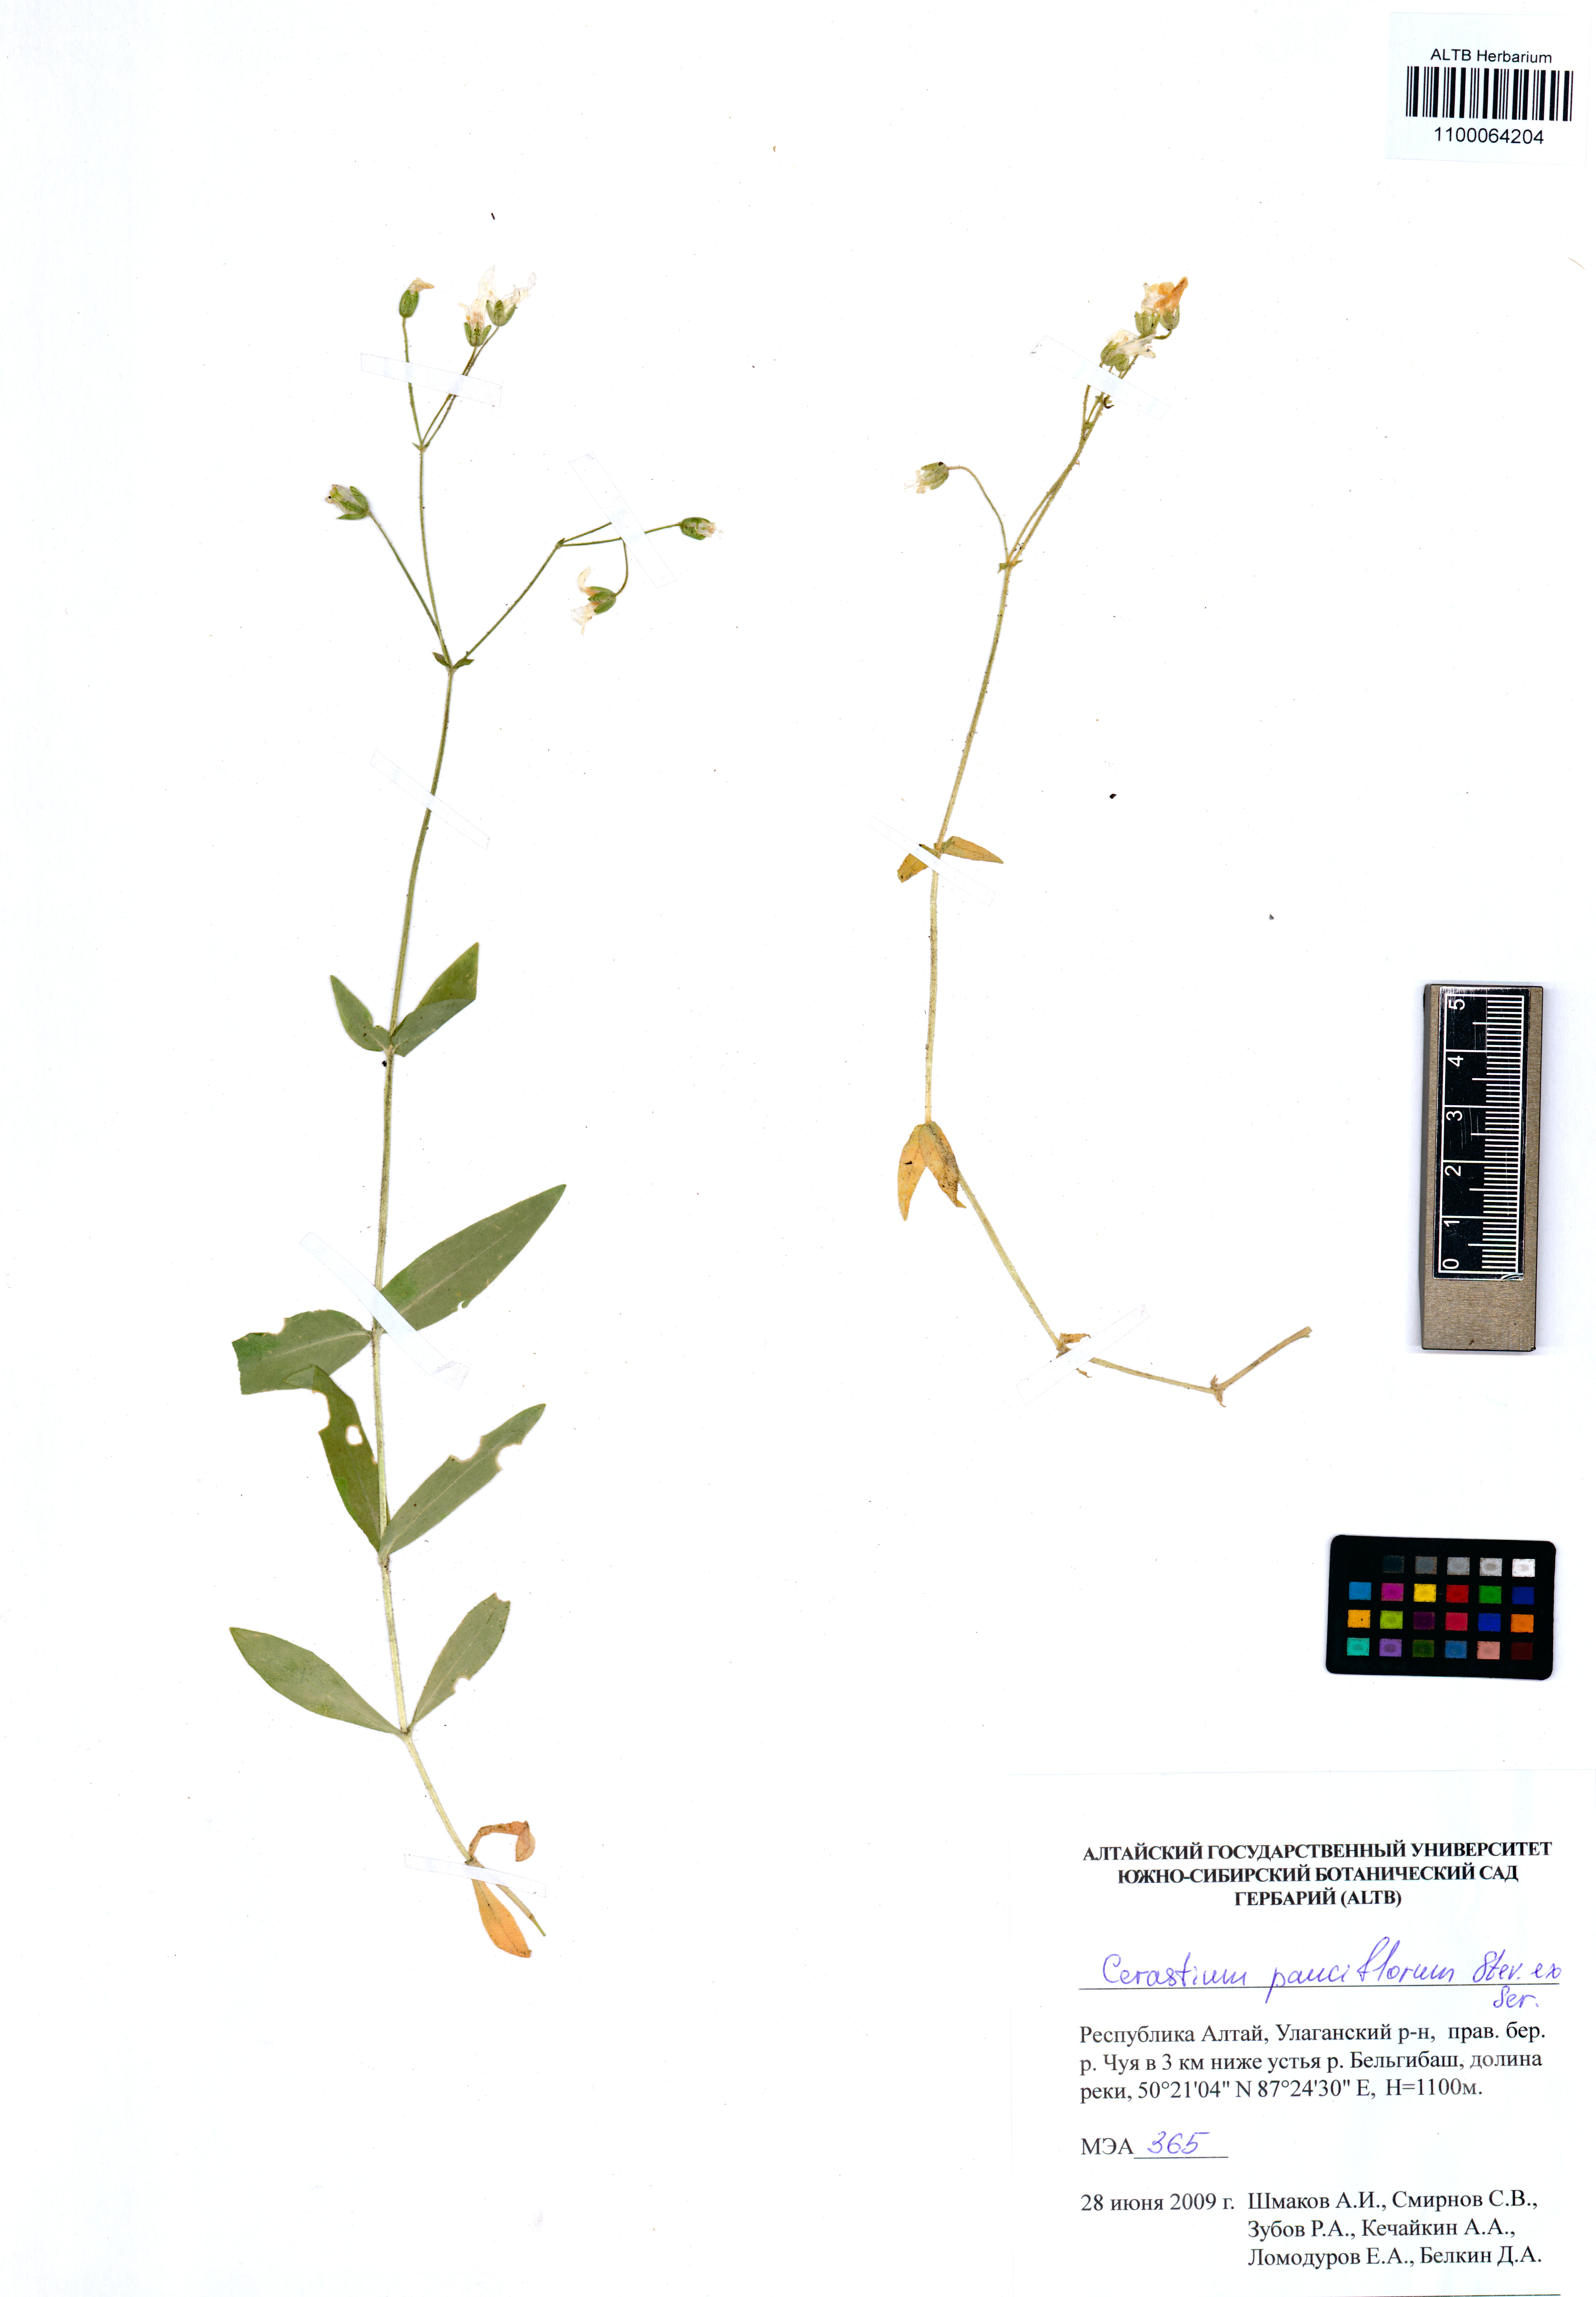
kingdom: Plantae
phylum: Tracheophyta
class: Magnoliopsida
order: Caryophyllales
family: Caryophyllaceae
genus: Cerastium
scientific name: Cerastium pauciflorum
